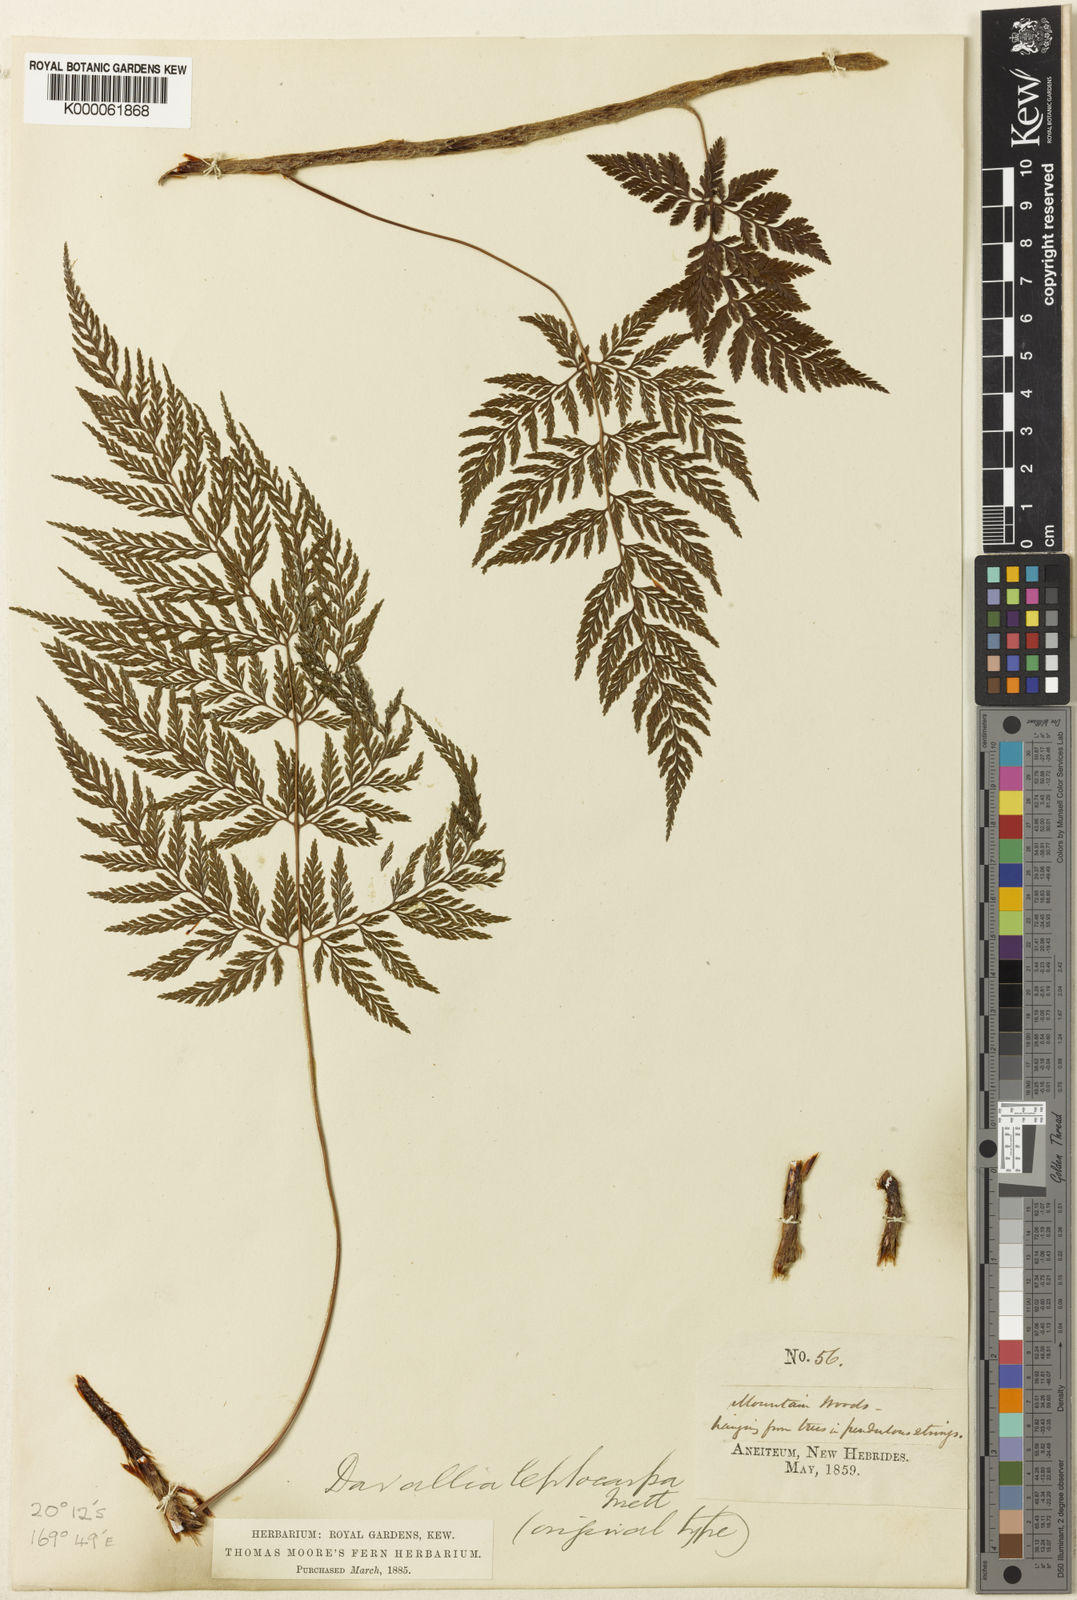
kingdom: Plantae
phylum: Tracheophyta
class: Polypodiopsida
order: Polypodiales
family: Davalliaceae
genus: Davallia
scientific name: Davallia leptocarpa
